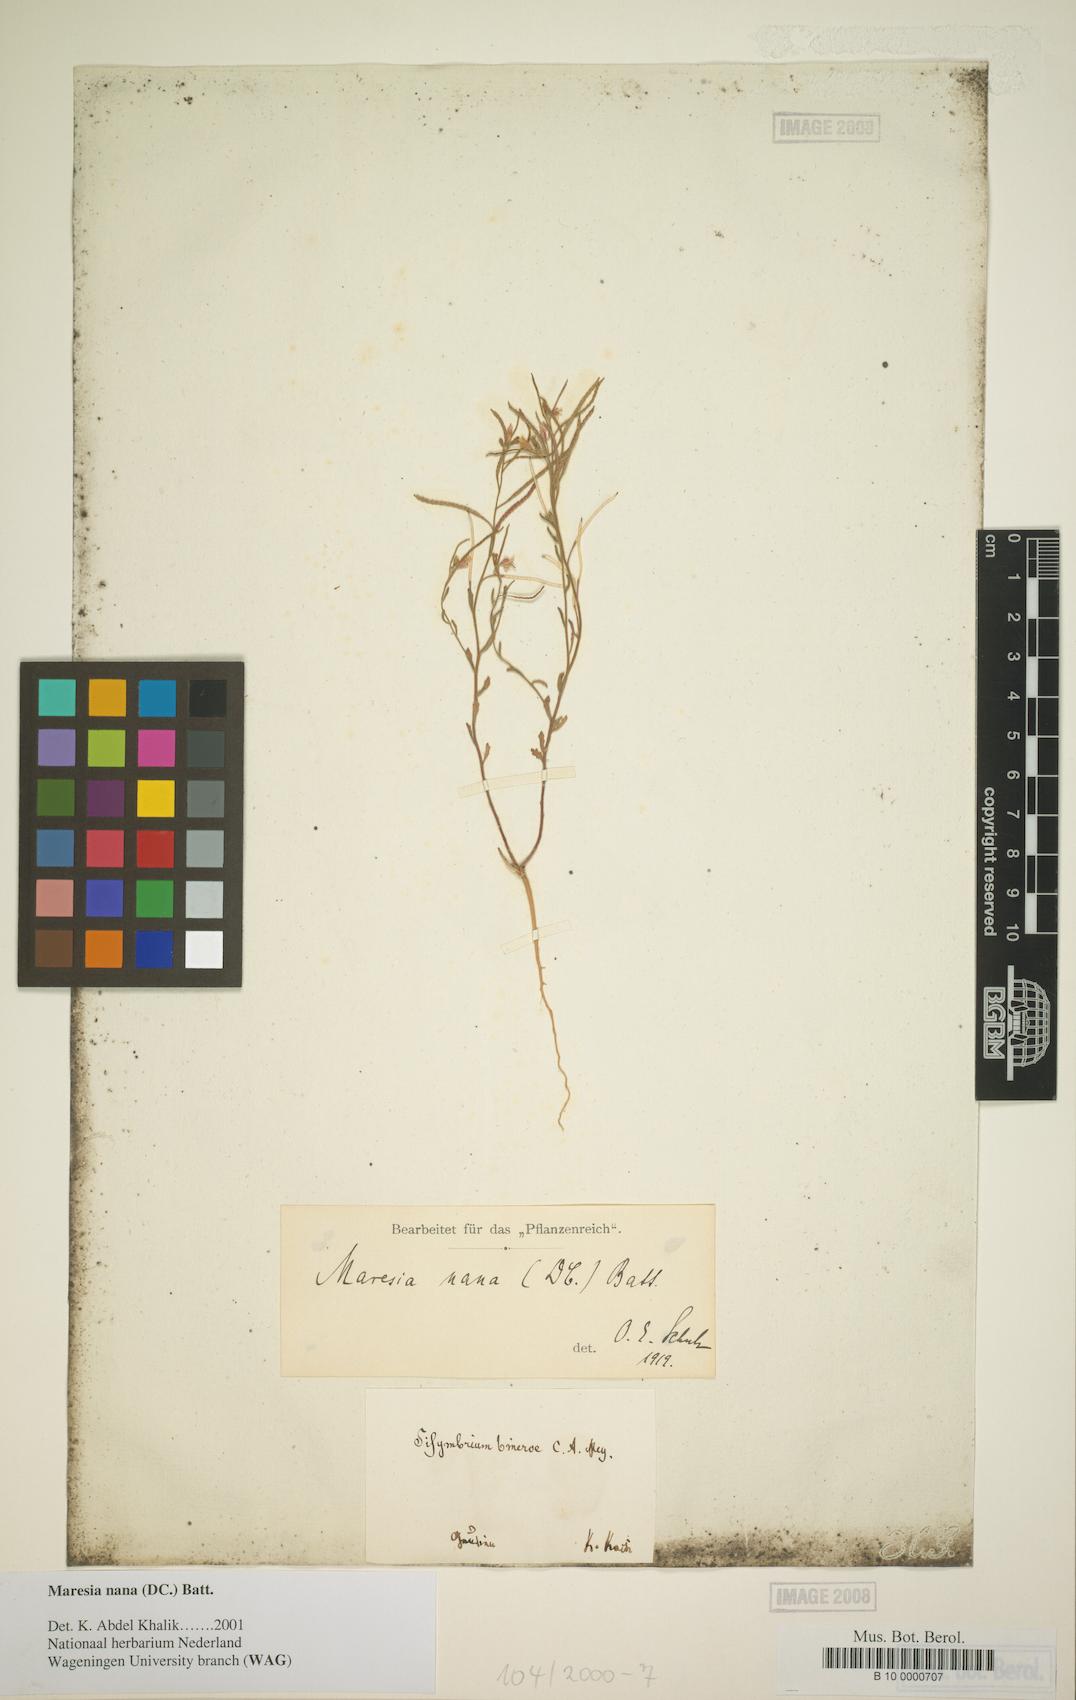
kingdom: Plantae
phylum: Tracheophyta
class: Magnoliopsida
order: Brassicales
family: Brassicaceae
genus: Maresia
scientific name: Maresia nana
